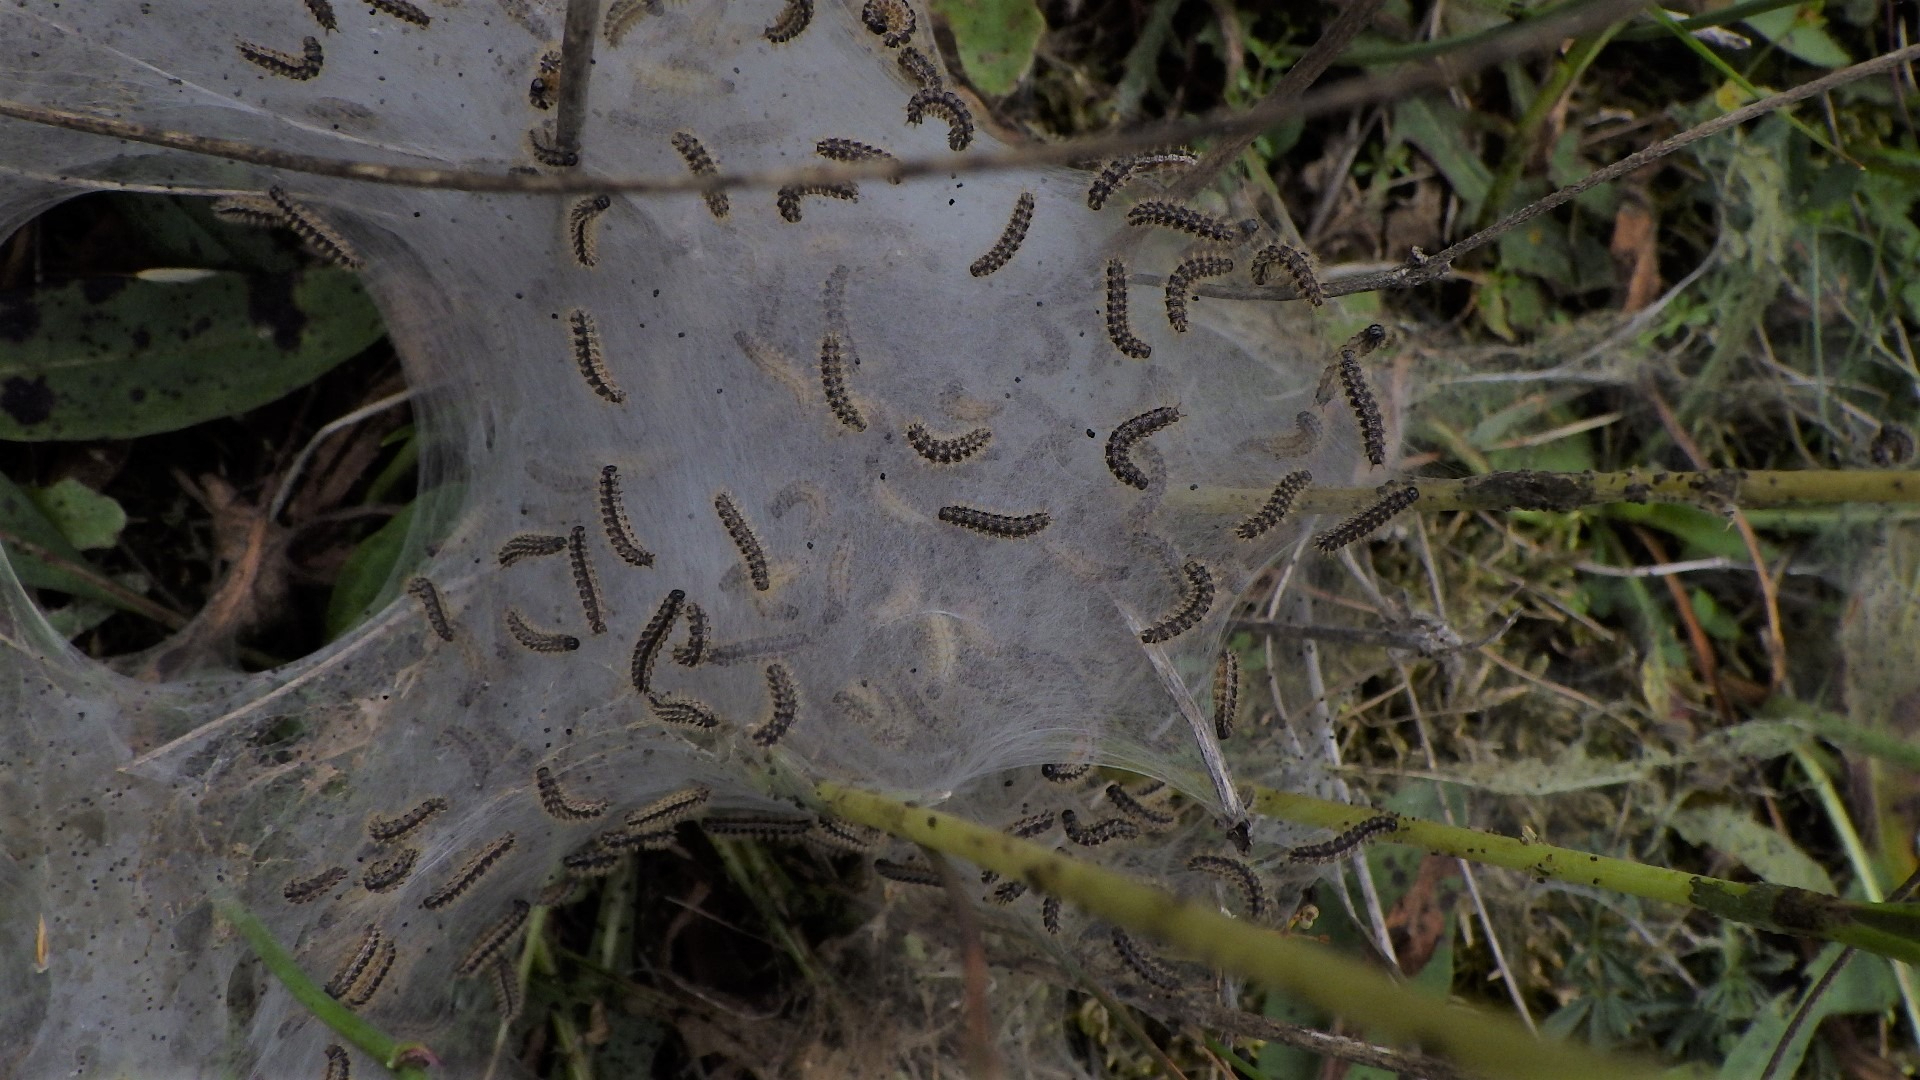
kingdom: Animalia
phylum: Arthropoda
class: Insecta
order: Lepidoptera
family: Nymphalidae
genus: Euphydryas
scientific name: Euphydryas aurinia
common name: Hedepletvinge
